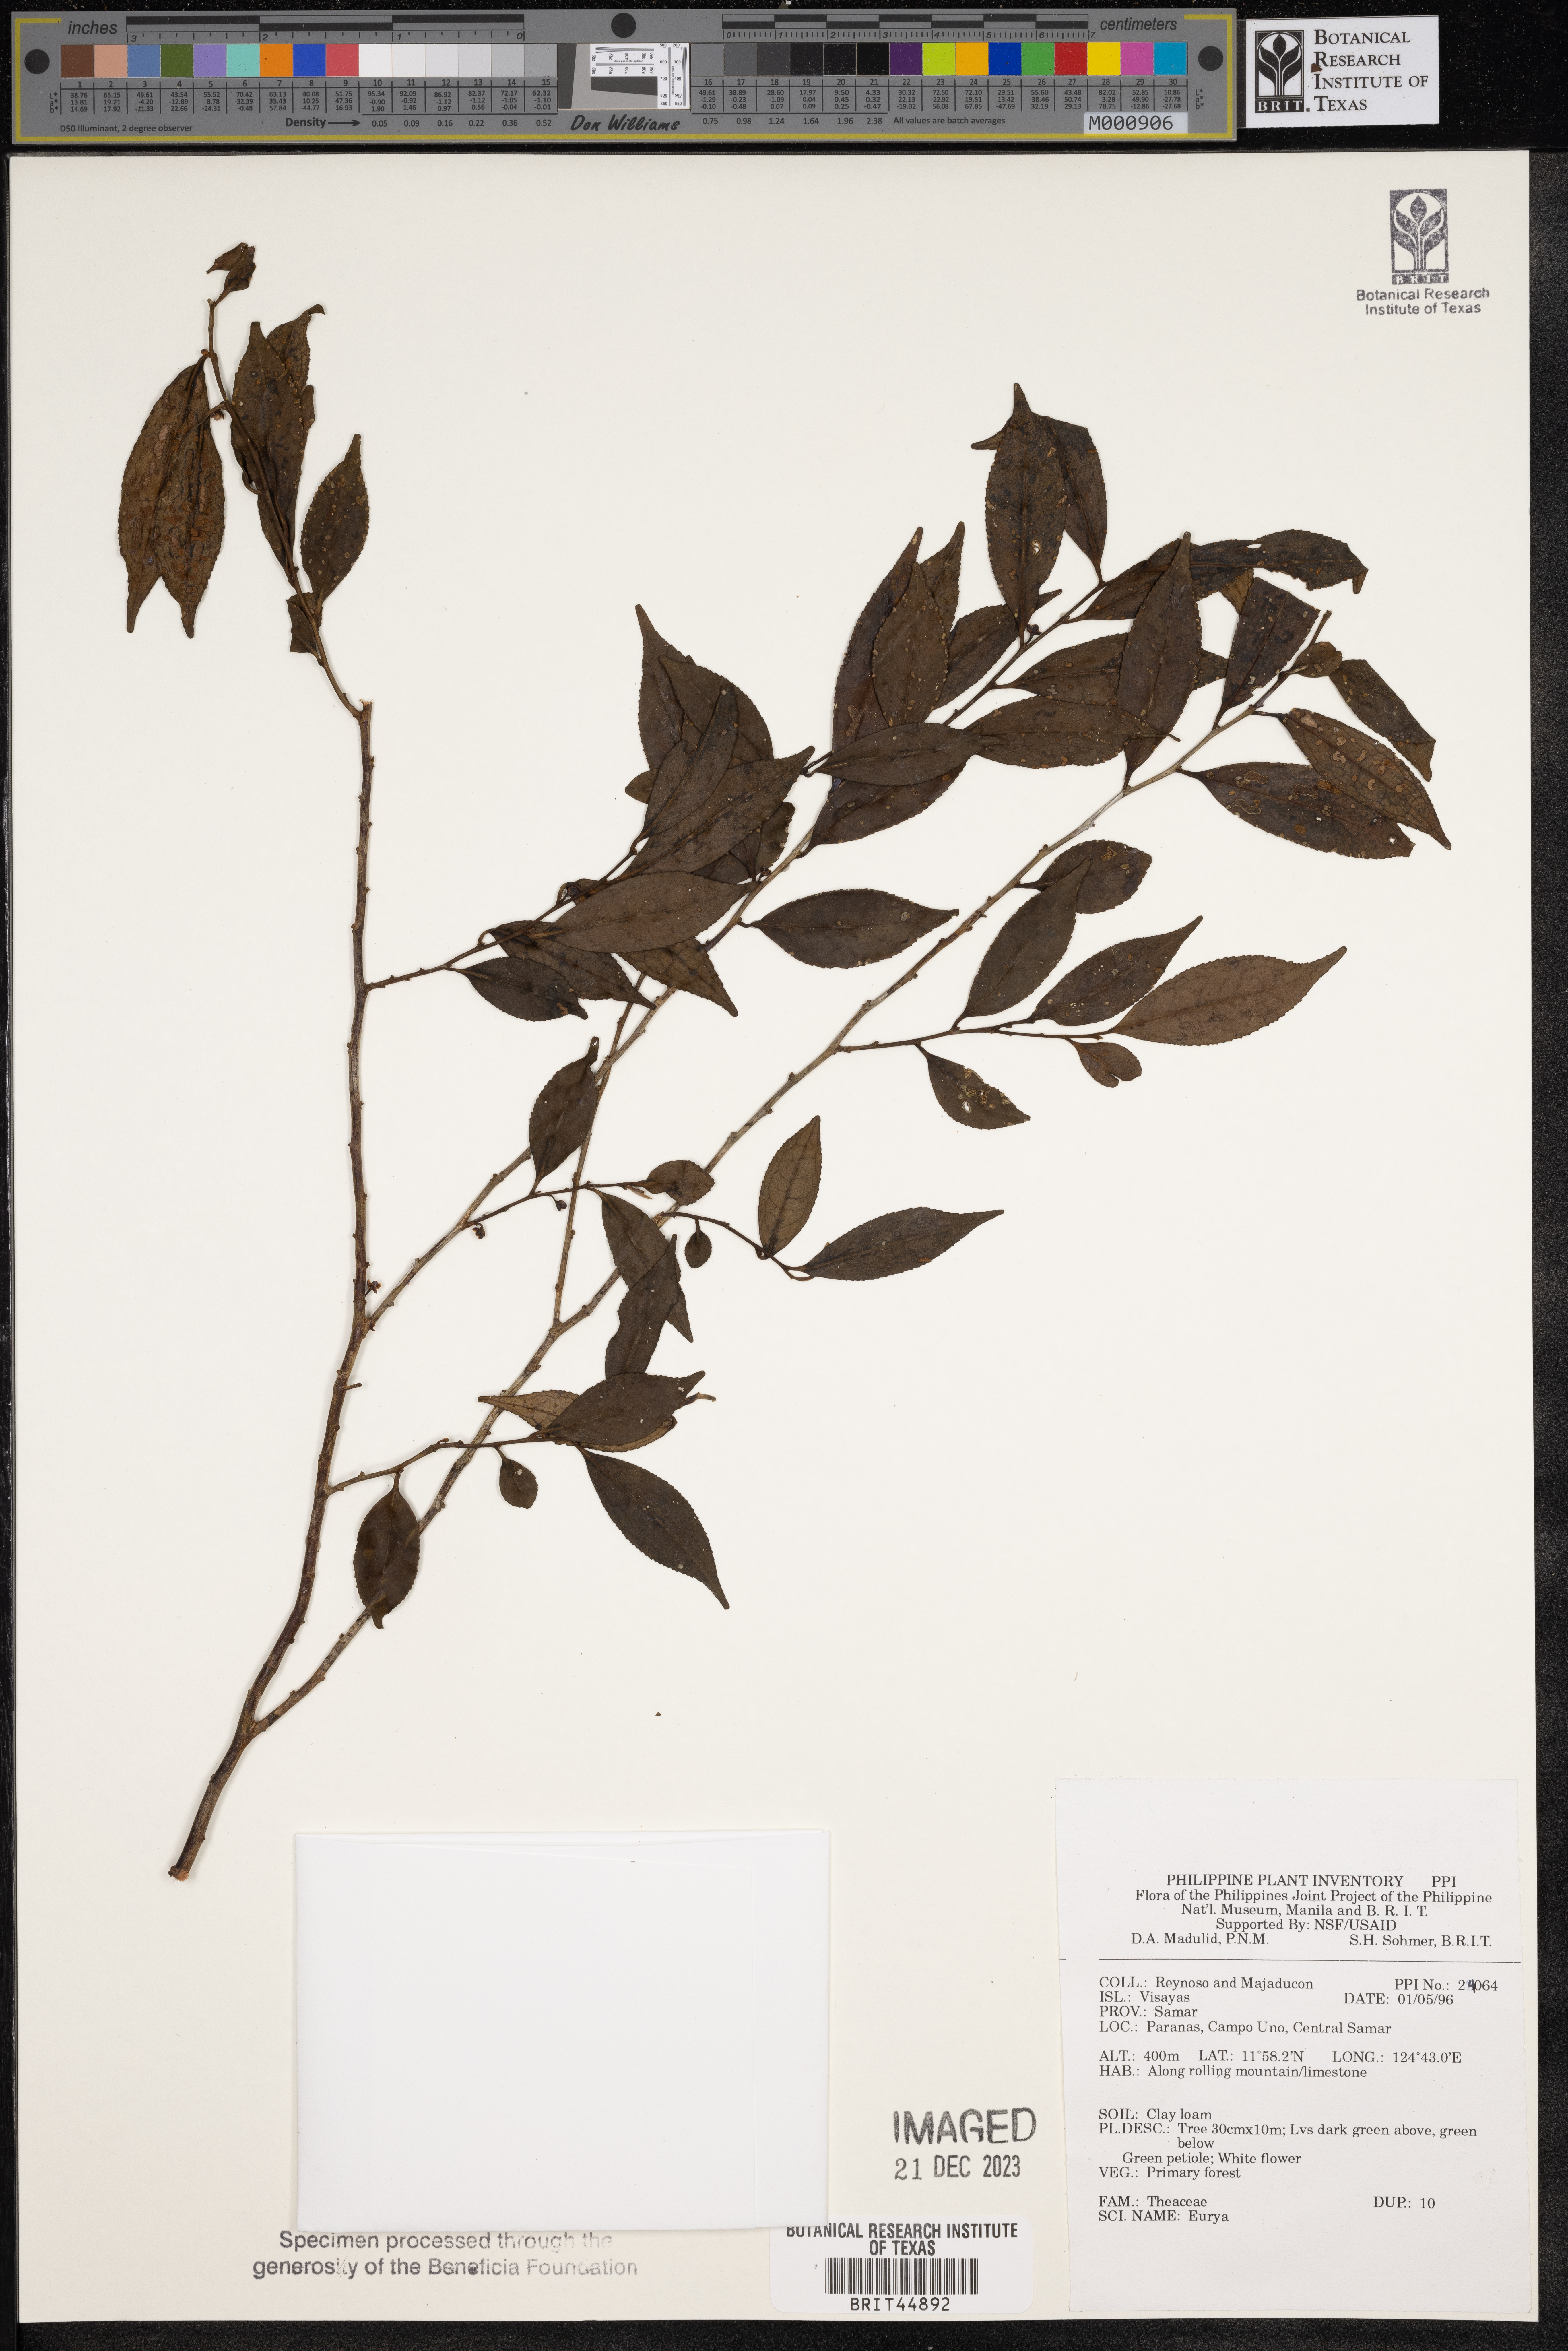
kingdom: Plantae
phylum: Tracheophyta
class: Magnoliopsida
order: Ericales
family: Pentaphylacaceae
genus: Eurya
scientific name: Eurya
